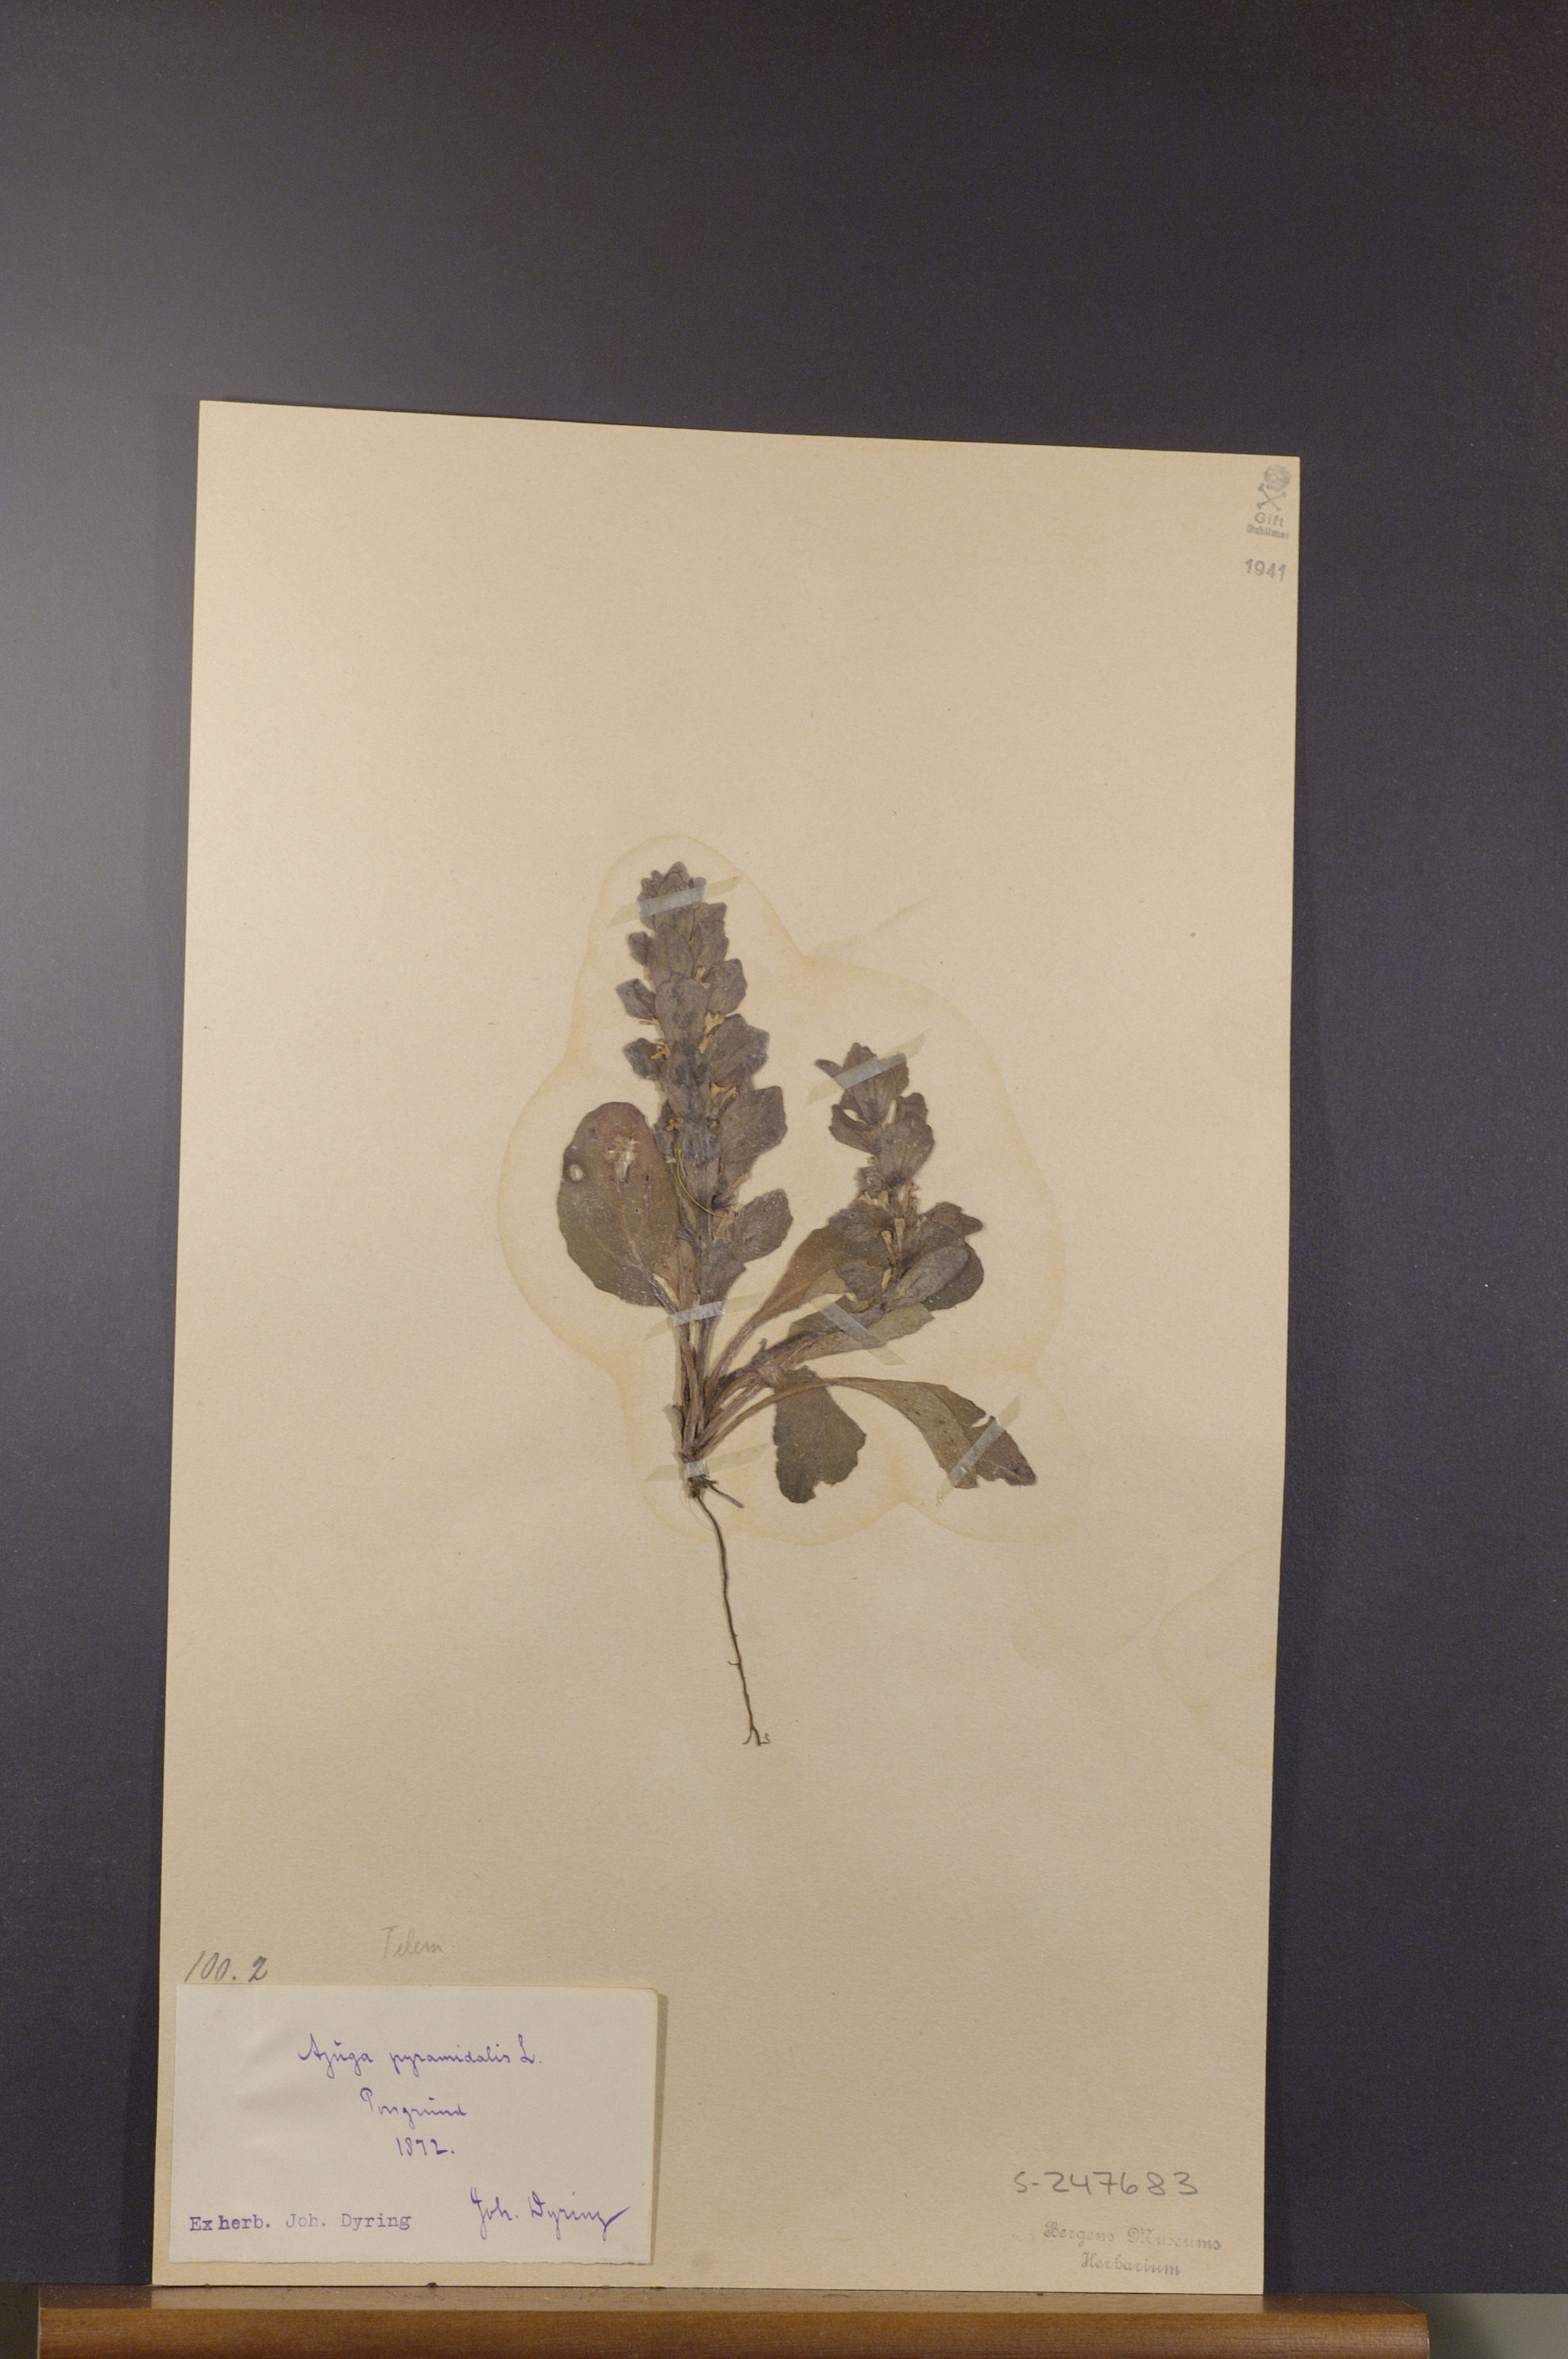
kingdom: Plantae
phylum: Tracheophyta
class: Magnoliopsida
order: Lamiales
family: Lamiaceae
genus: Ajuga
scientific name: Ajuga pyramidalis
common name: Pyramid bugle
